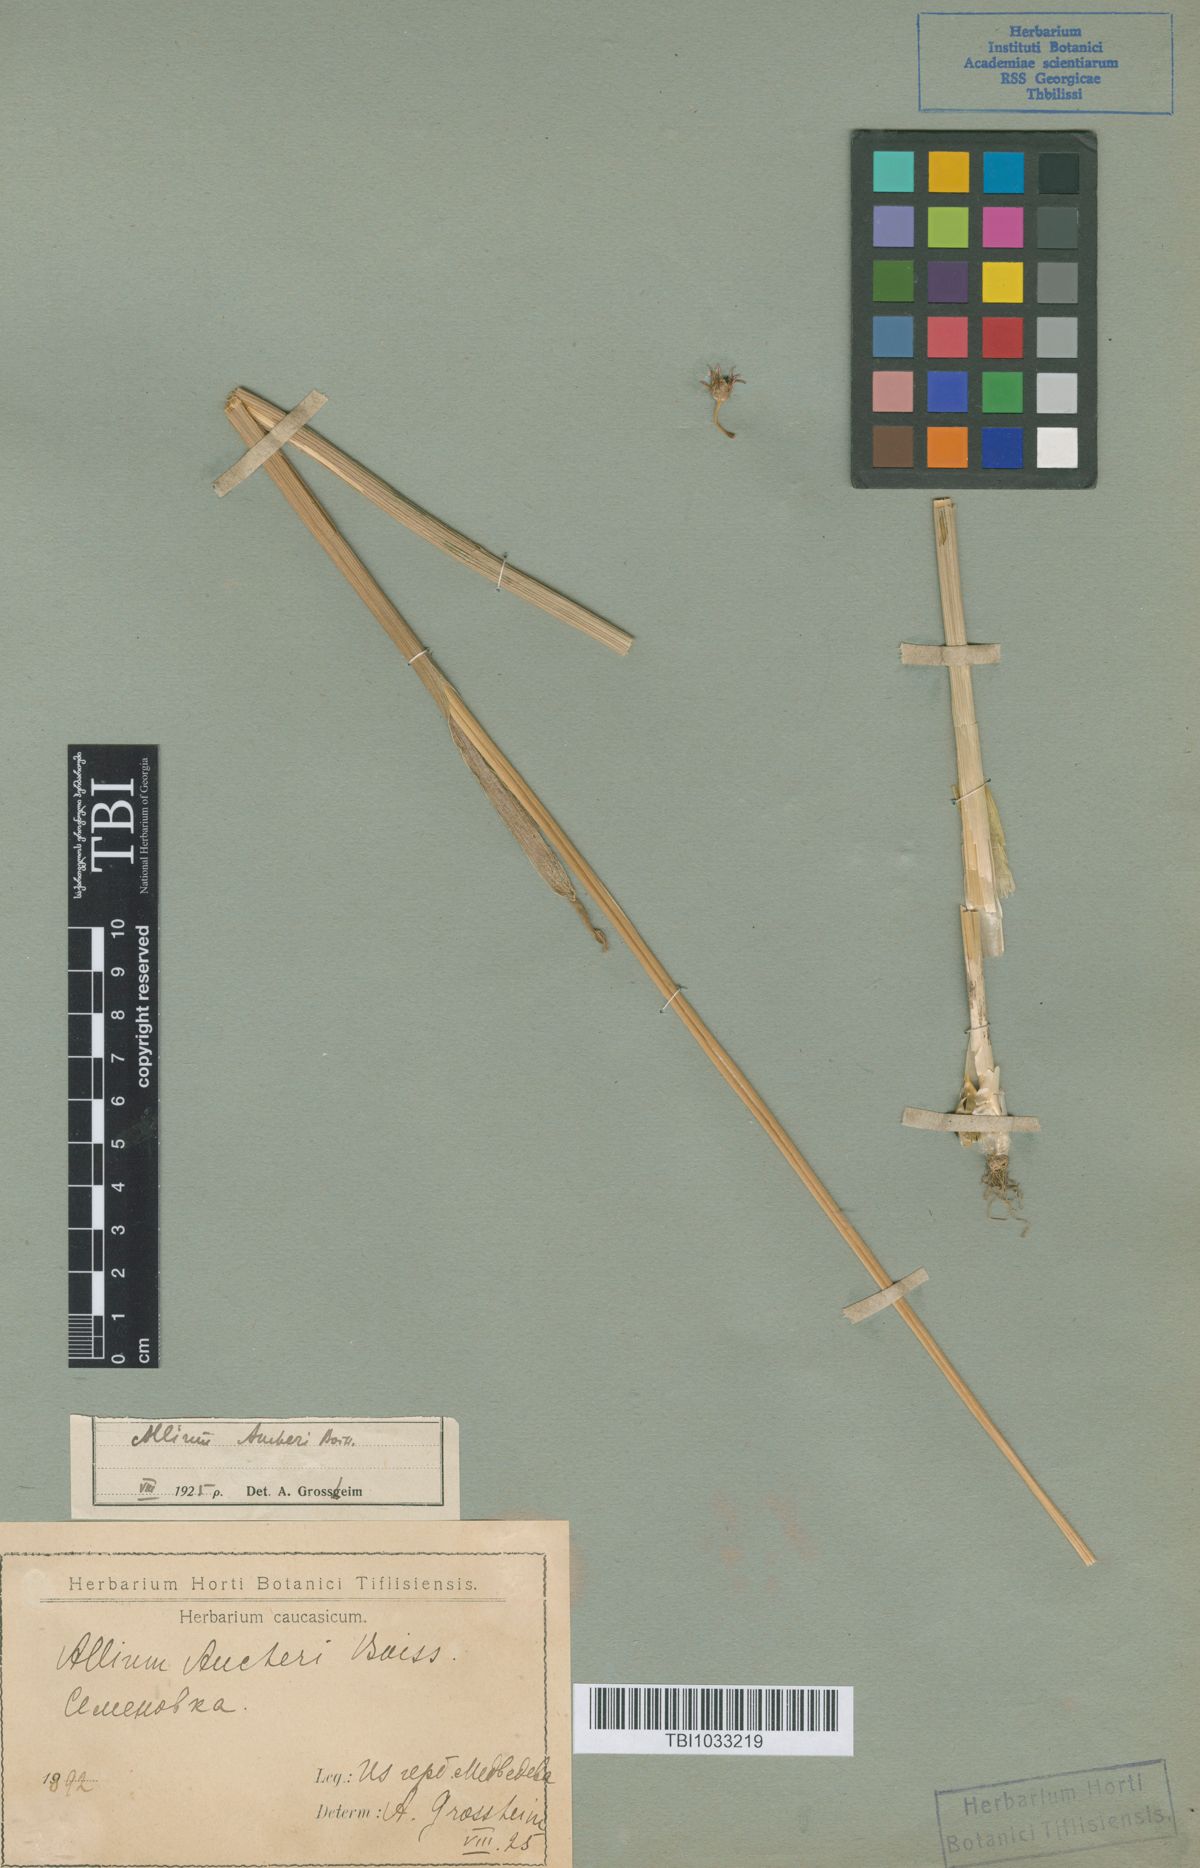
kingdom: Plantae
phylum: Tracheophyta
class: Liliopsida
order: Asparagales
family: Amaryllidaceae
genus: Allium
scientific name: Allium aucheri
